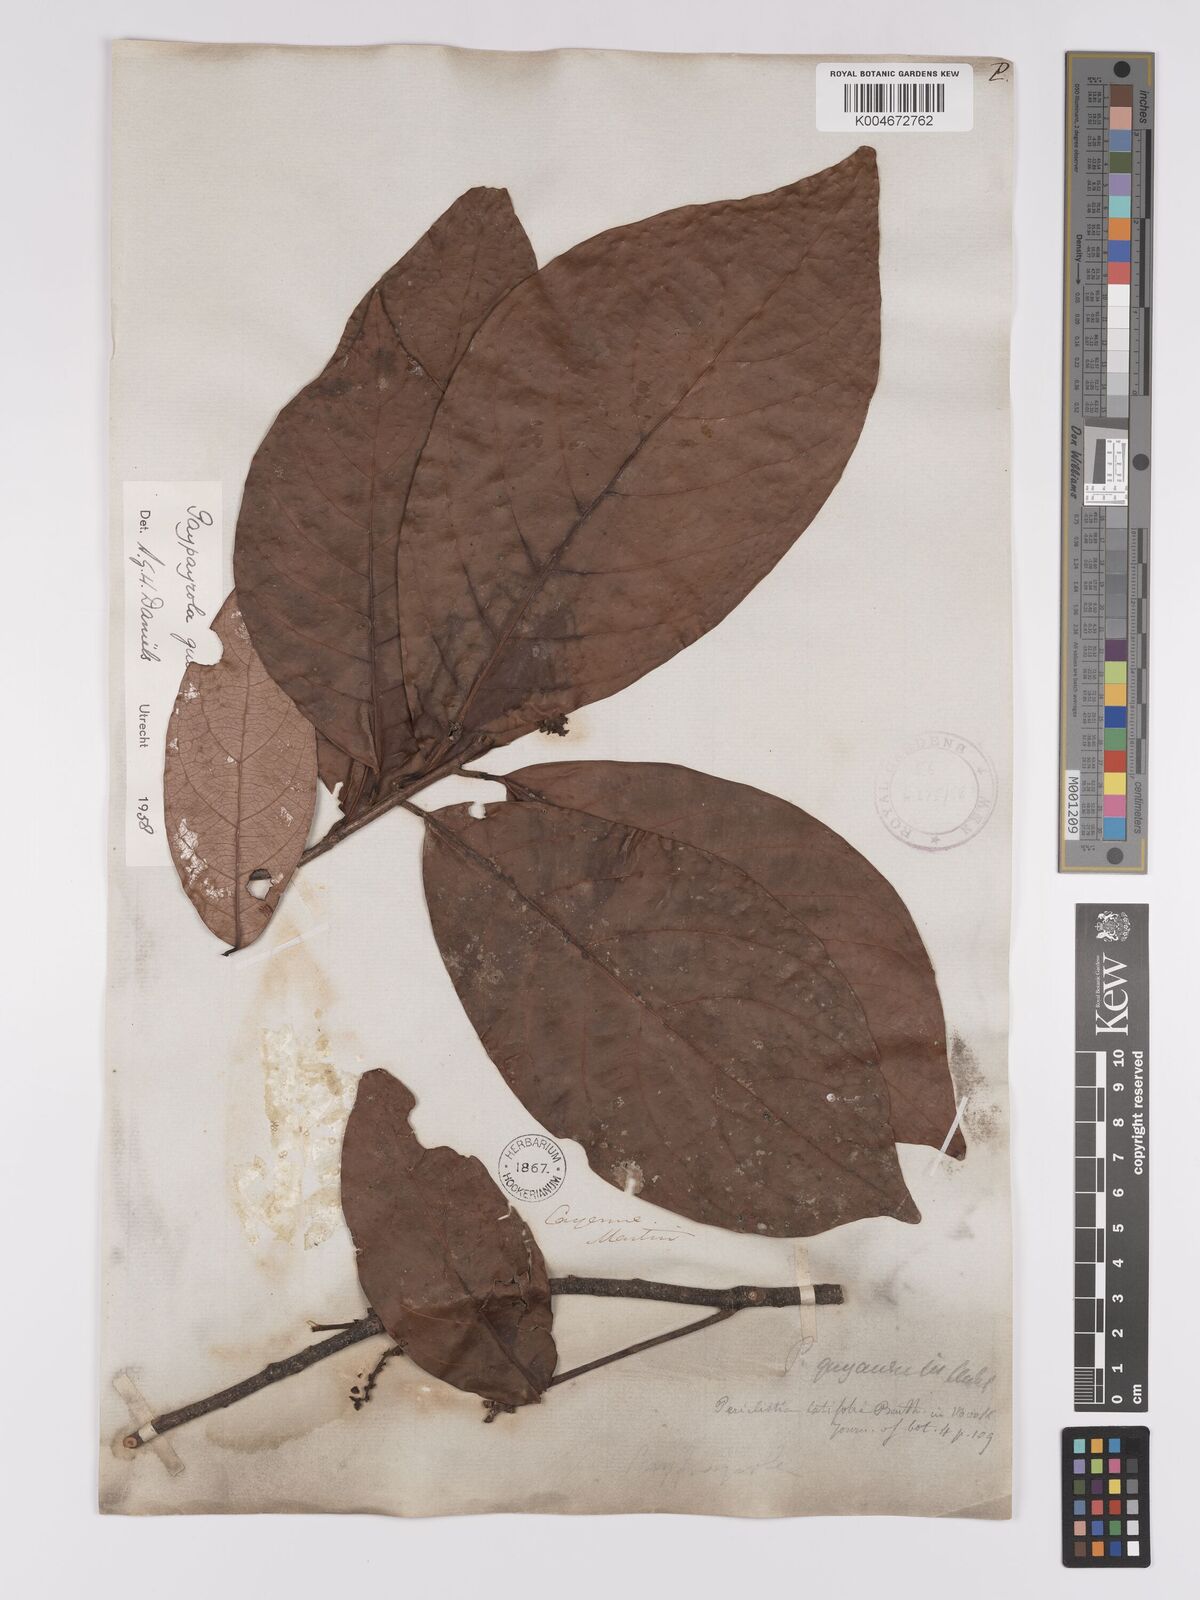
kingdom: Plantae
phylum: Tracheophyta
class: Magnoliopsida
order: Malpighiales
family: Violaceae
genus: Paypayrola
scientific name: Paypayrola guianensis
